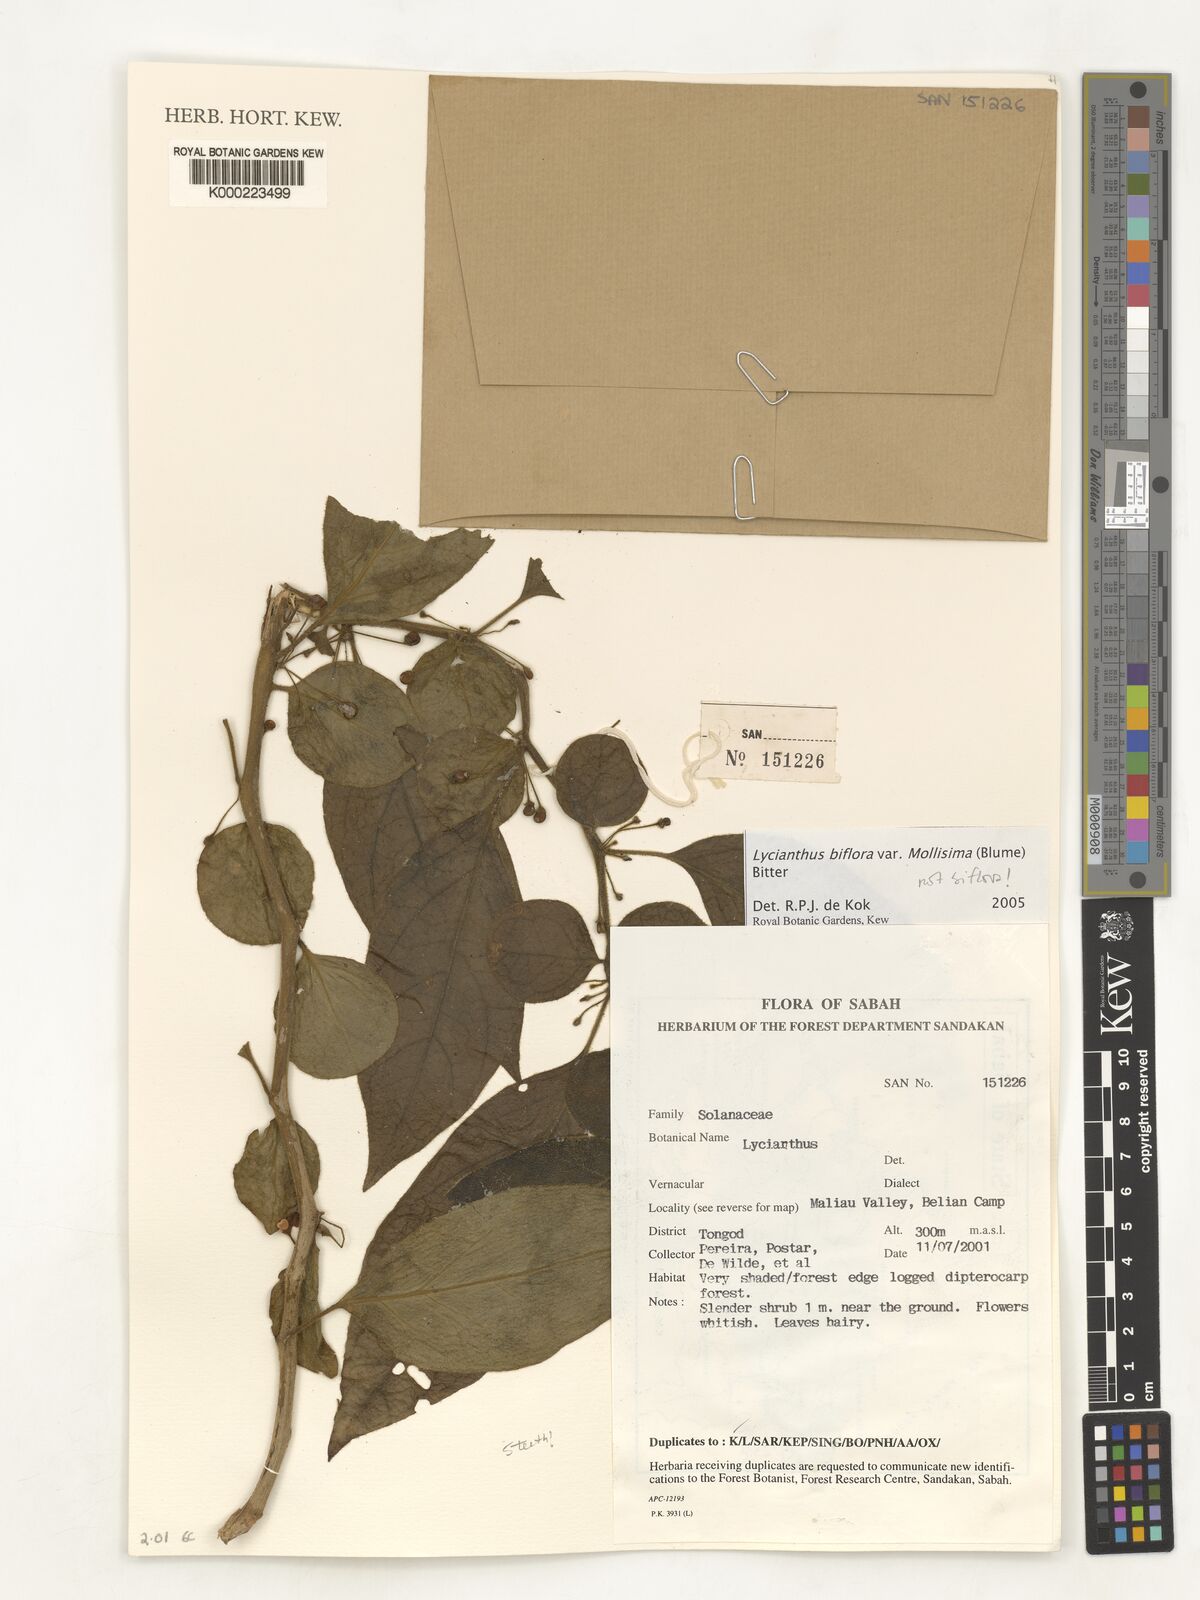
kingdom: Plantae
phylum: Tracheophyta
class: Magnoliopsida
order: Solanales
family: Solanaceae
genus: Lycianthes
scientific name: Lycianthes biflora
